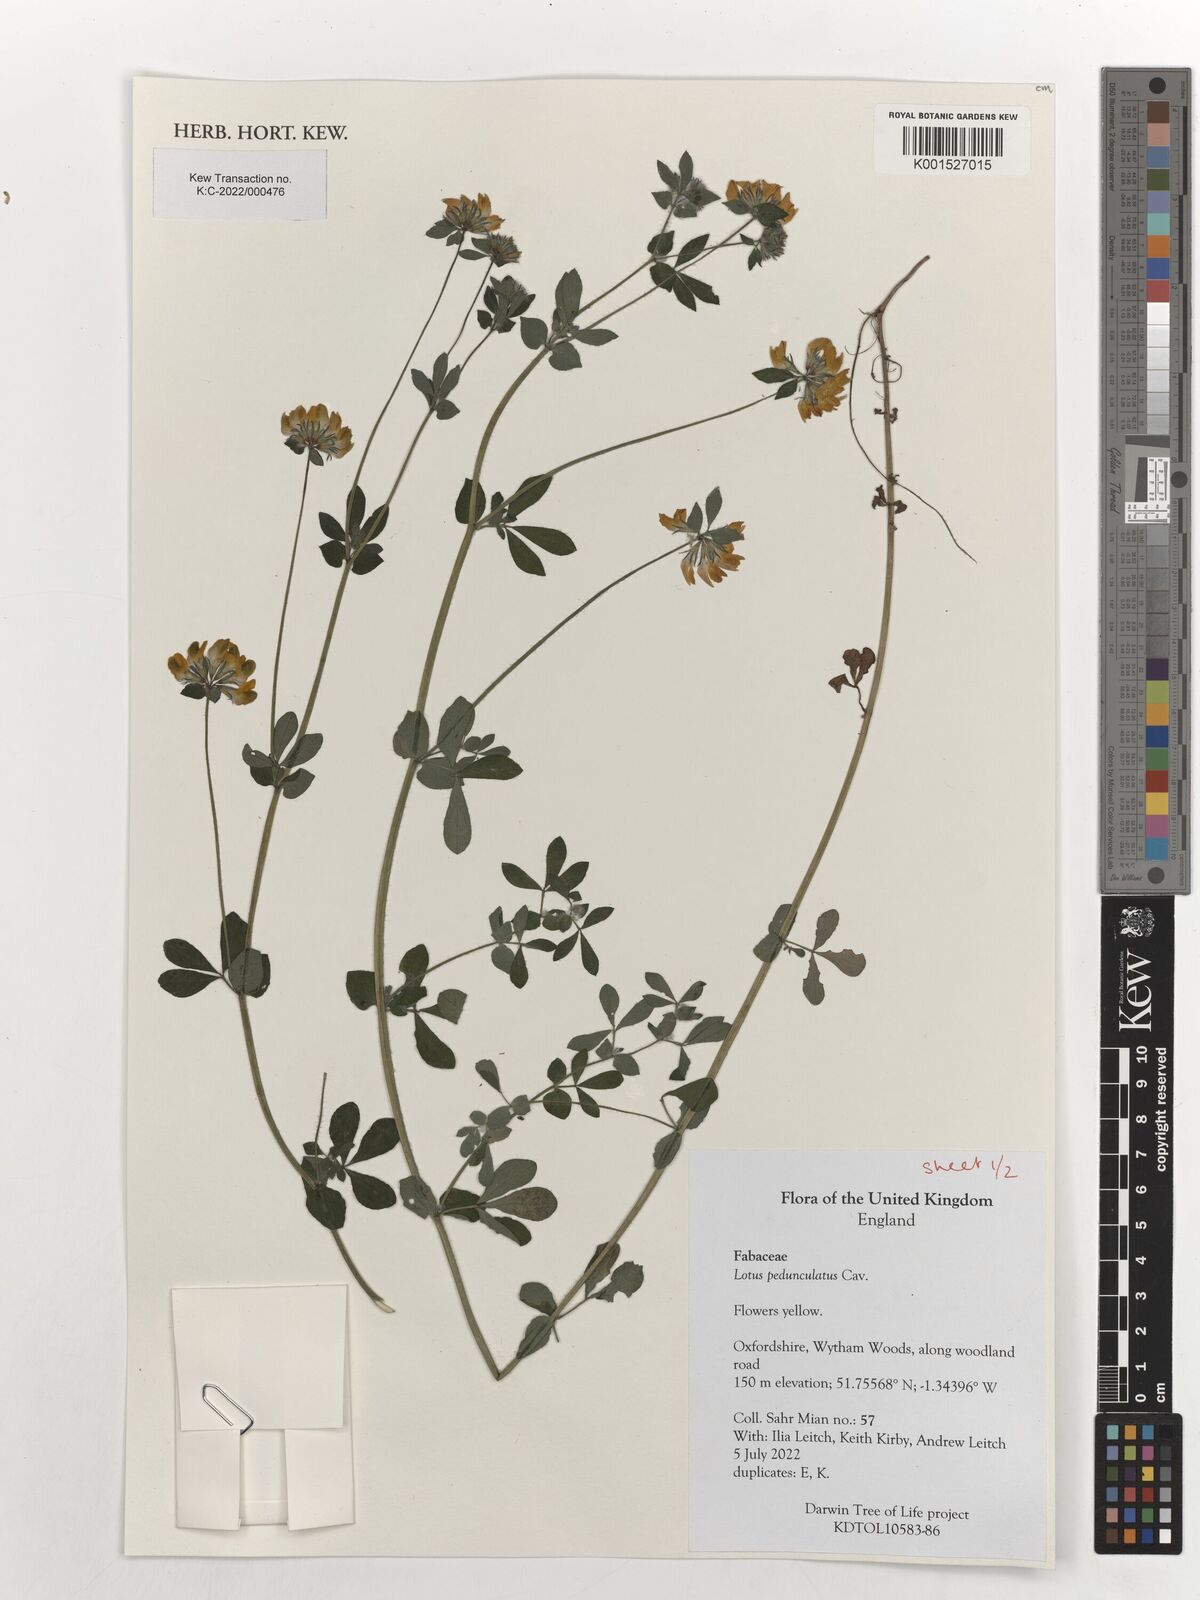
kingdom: Plantae
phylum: Tracheophyta
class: Magnoliopsida
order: Fabales
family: Fabaceae
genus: Lotus
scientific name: Lotus pedunculatus
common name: Greater birdsfoot-trefoil
